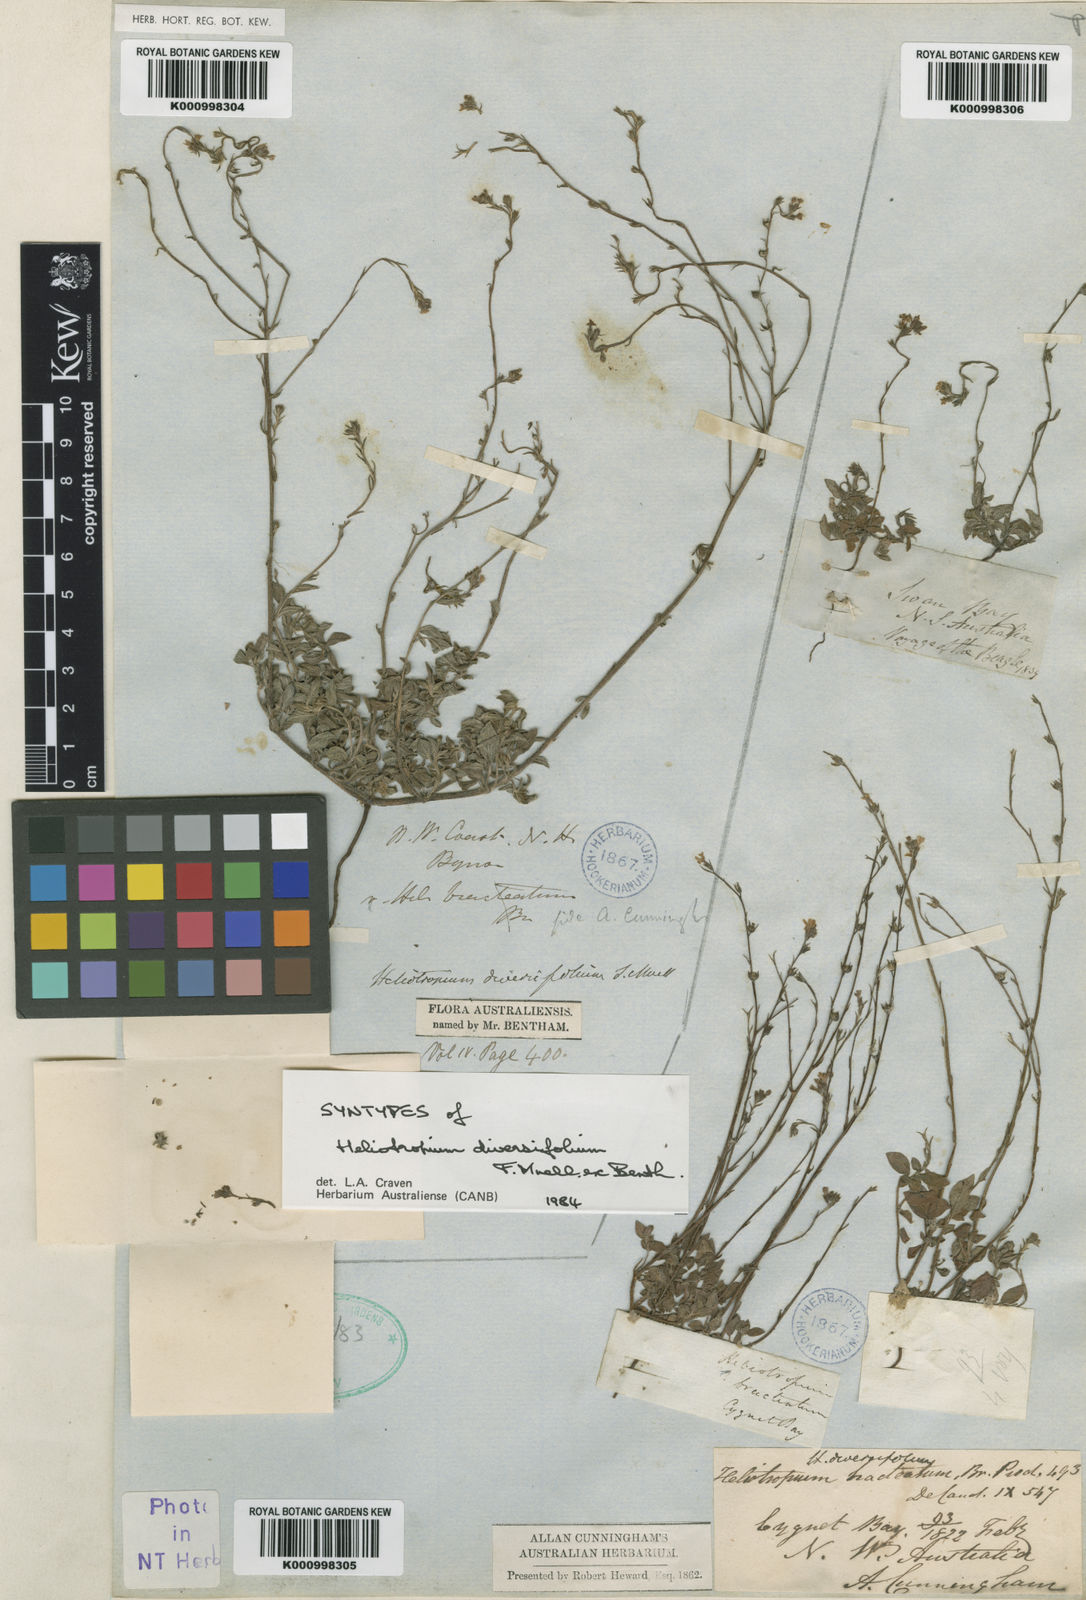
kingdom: Plantae
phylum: Tracheophyta
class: Magnoliopsida
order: Boraginales
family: Heliotropiaceae
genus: Euploca
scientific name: Euploca diversifolia
